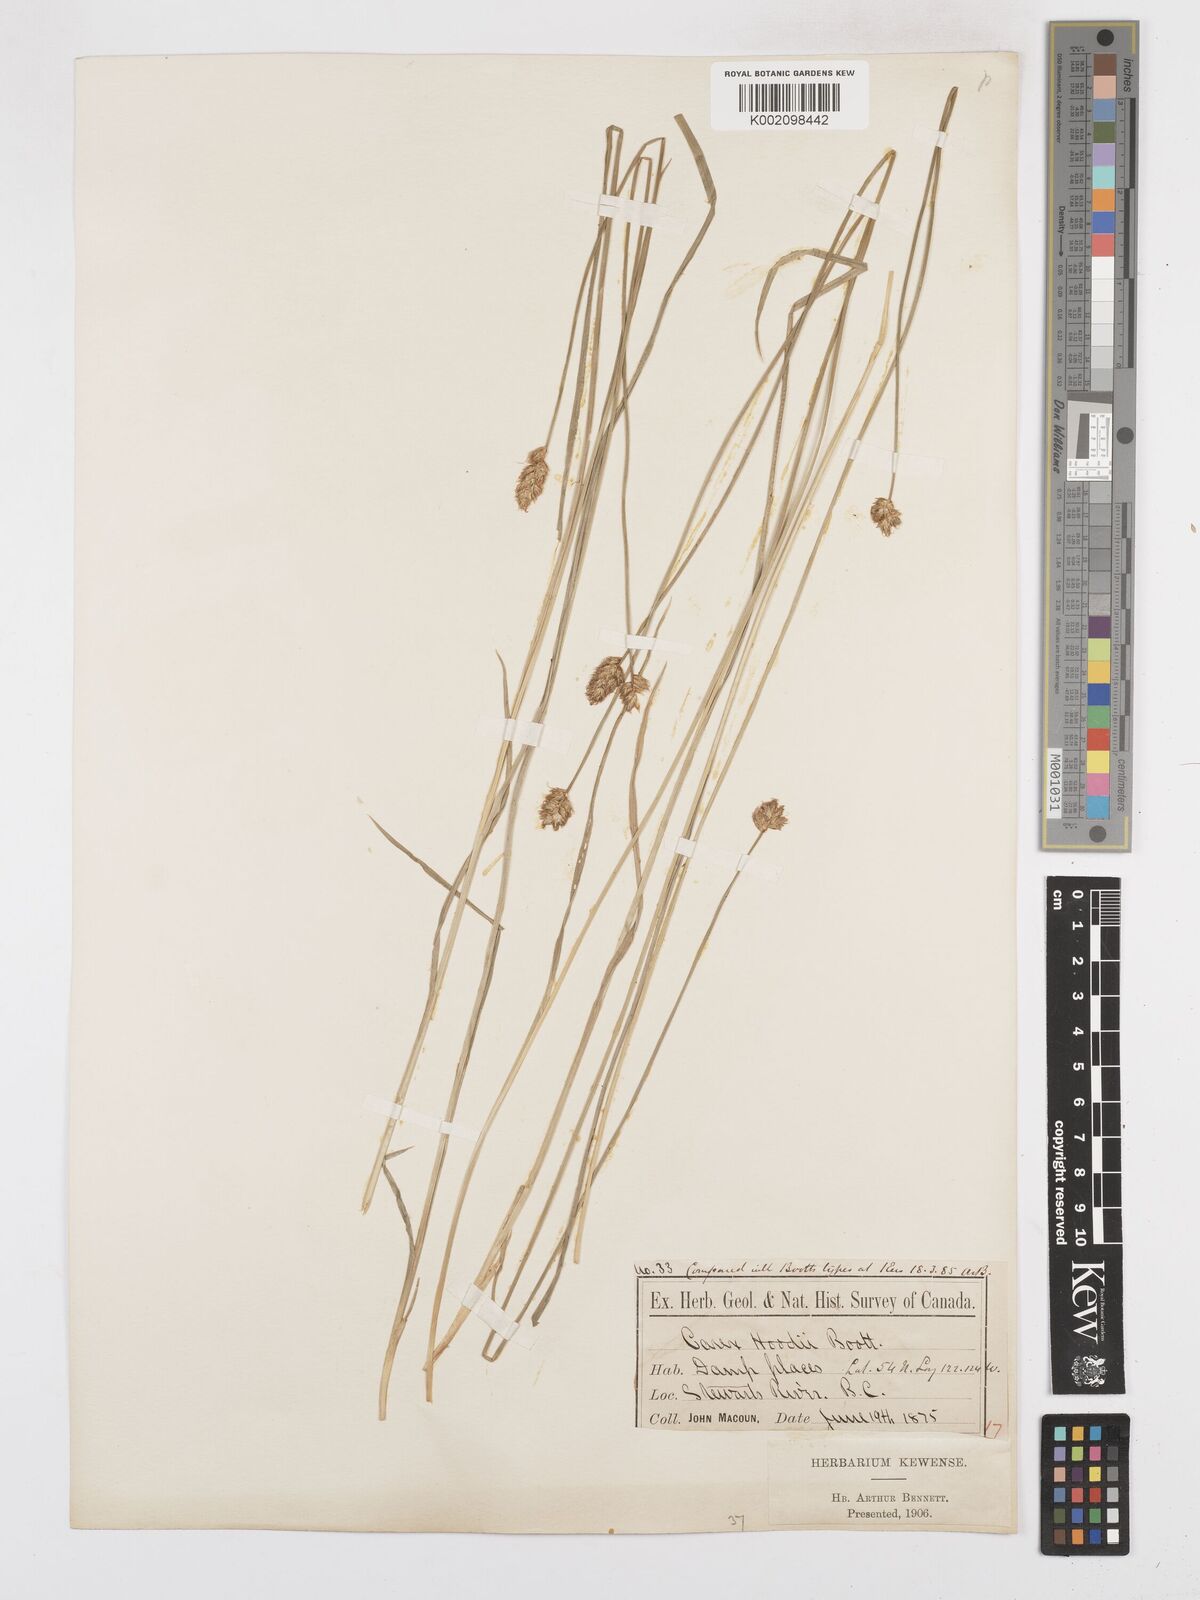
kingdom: Plantae
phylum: Tracheophyta
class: Liliopsida
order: Poales
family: Cyperaceae
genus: Carex
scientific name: Carex hoodii
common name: Hood's sedge
